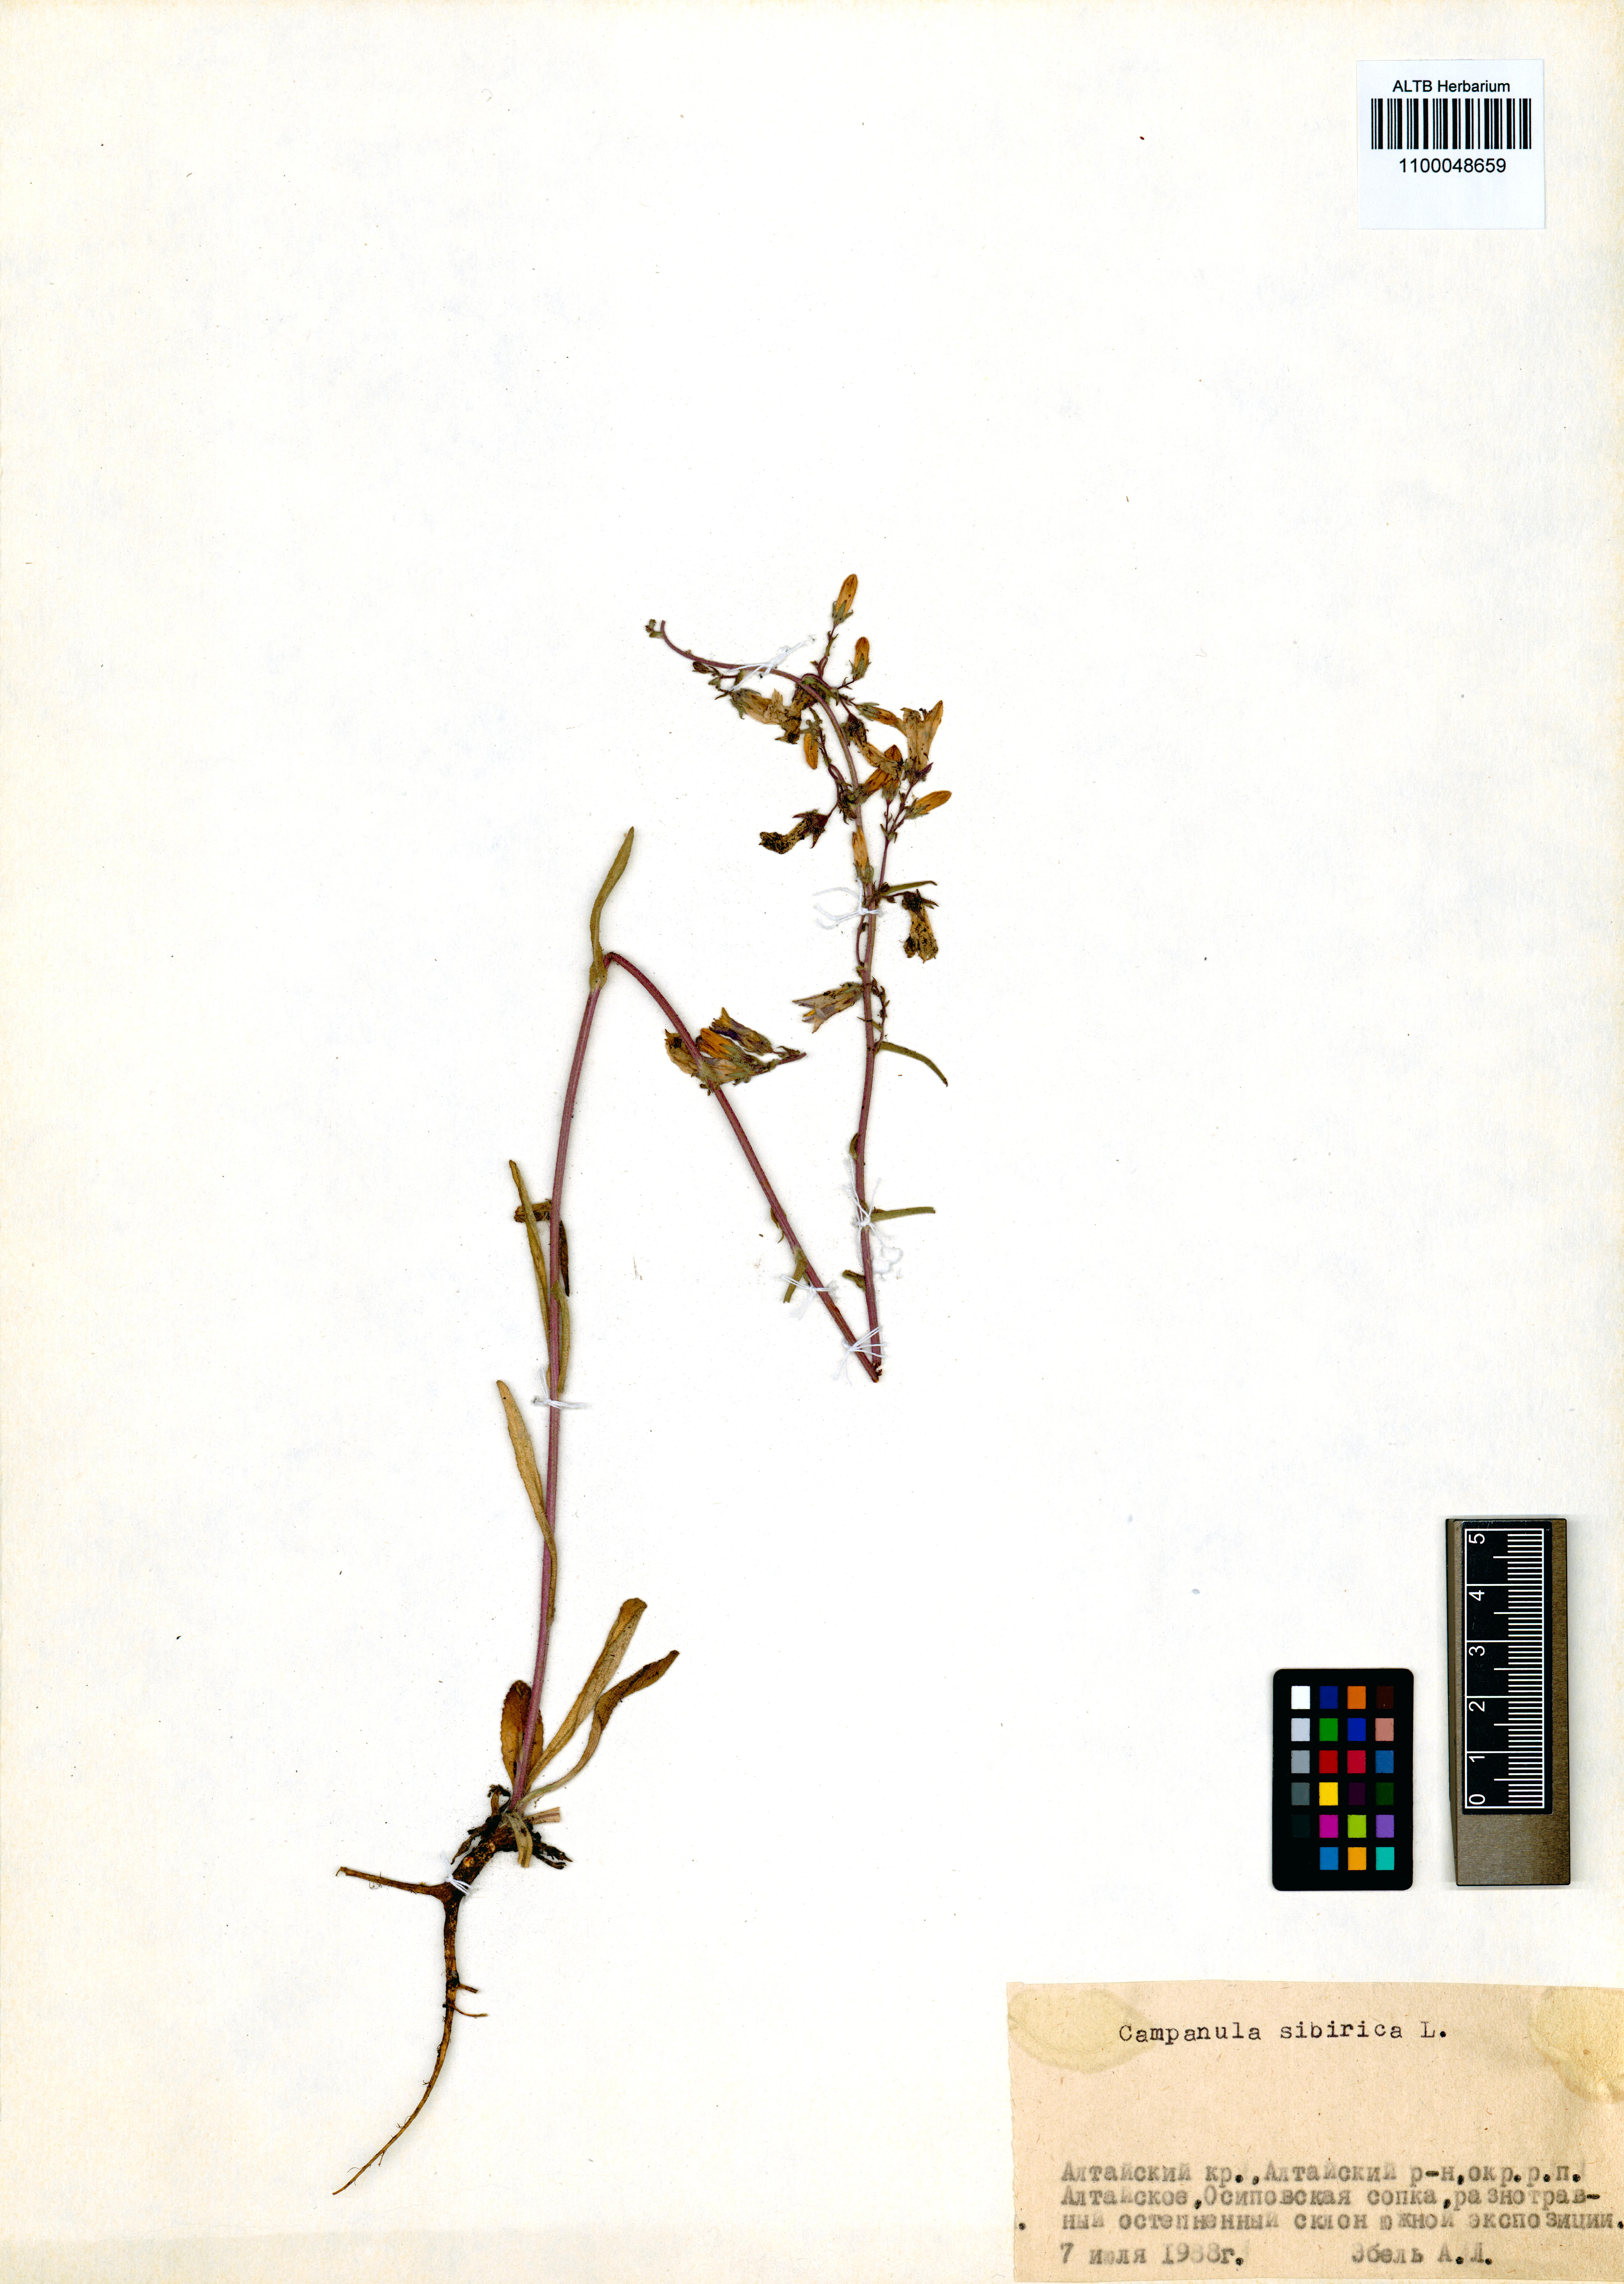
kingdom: Plantae
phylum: Tracheophyta
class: Magnoliopsida
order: Asterales
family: Campanulaceae
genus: Campanula
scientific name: Campanula sibirica
